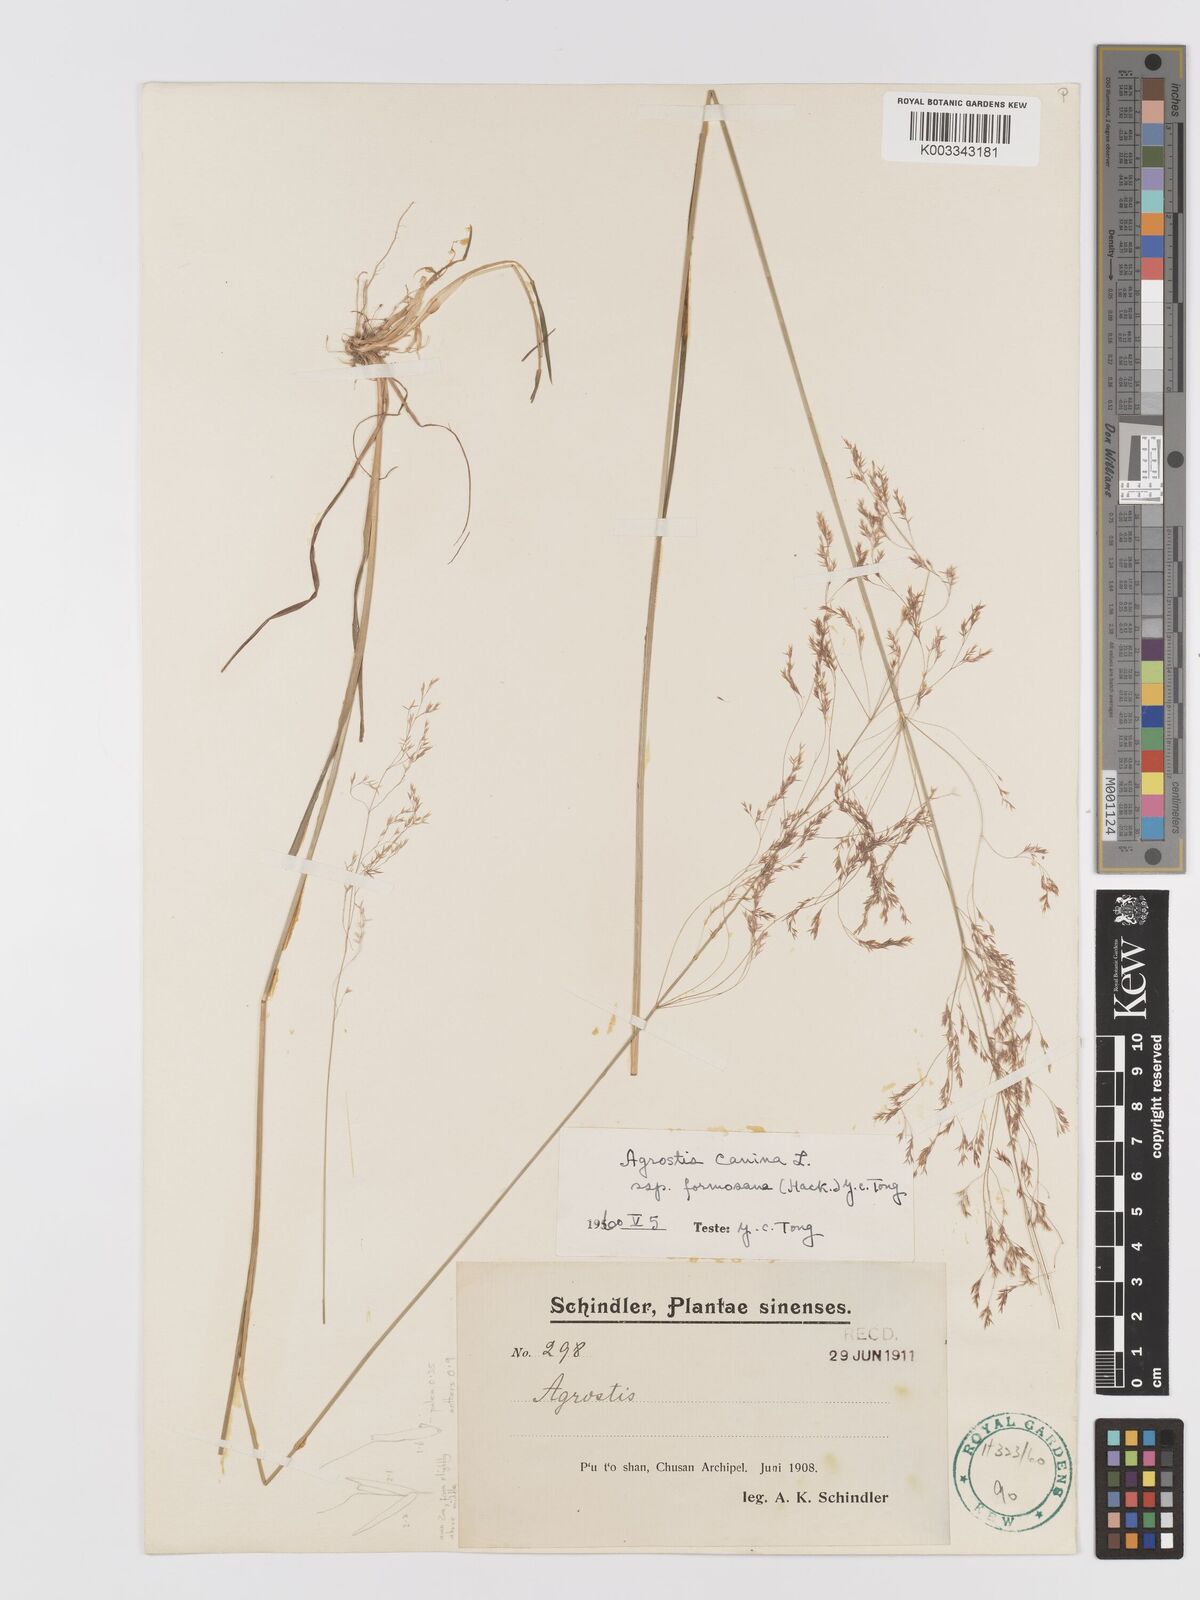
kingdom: Plantae
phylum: Tracheophyta
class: Liliopsida
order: Poales
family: Poaceae
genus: Agrostis
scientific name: Agrostis infirma
